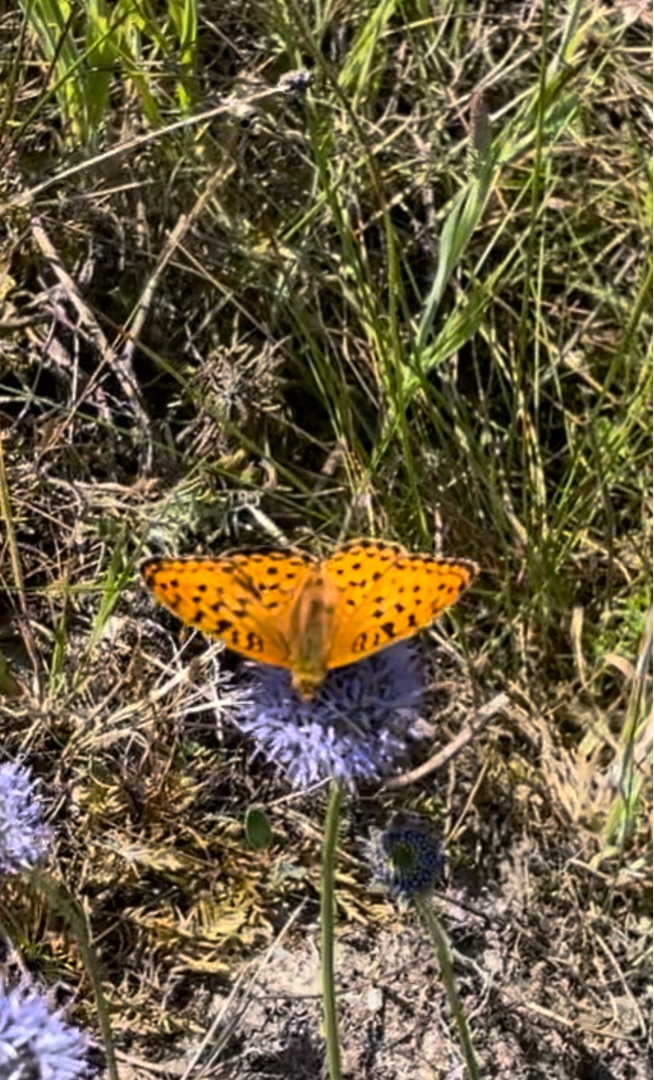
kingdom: Animalia
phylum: Arthropoda
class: Insecta
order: Lepidoptera
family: Nymphalidae
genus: Fabriciana
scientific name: Fabriciana adippe
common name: Skovperlemorsommerfugl
